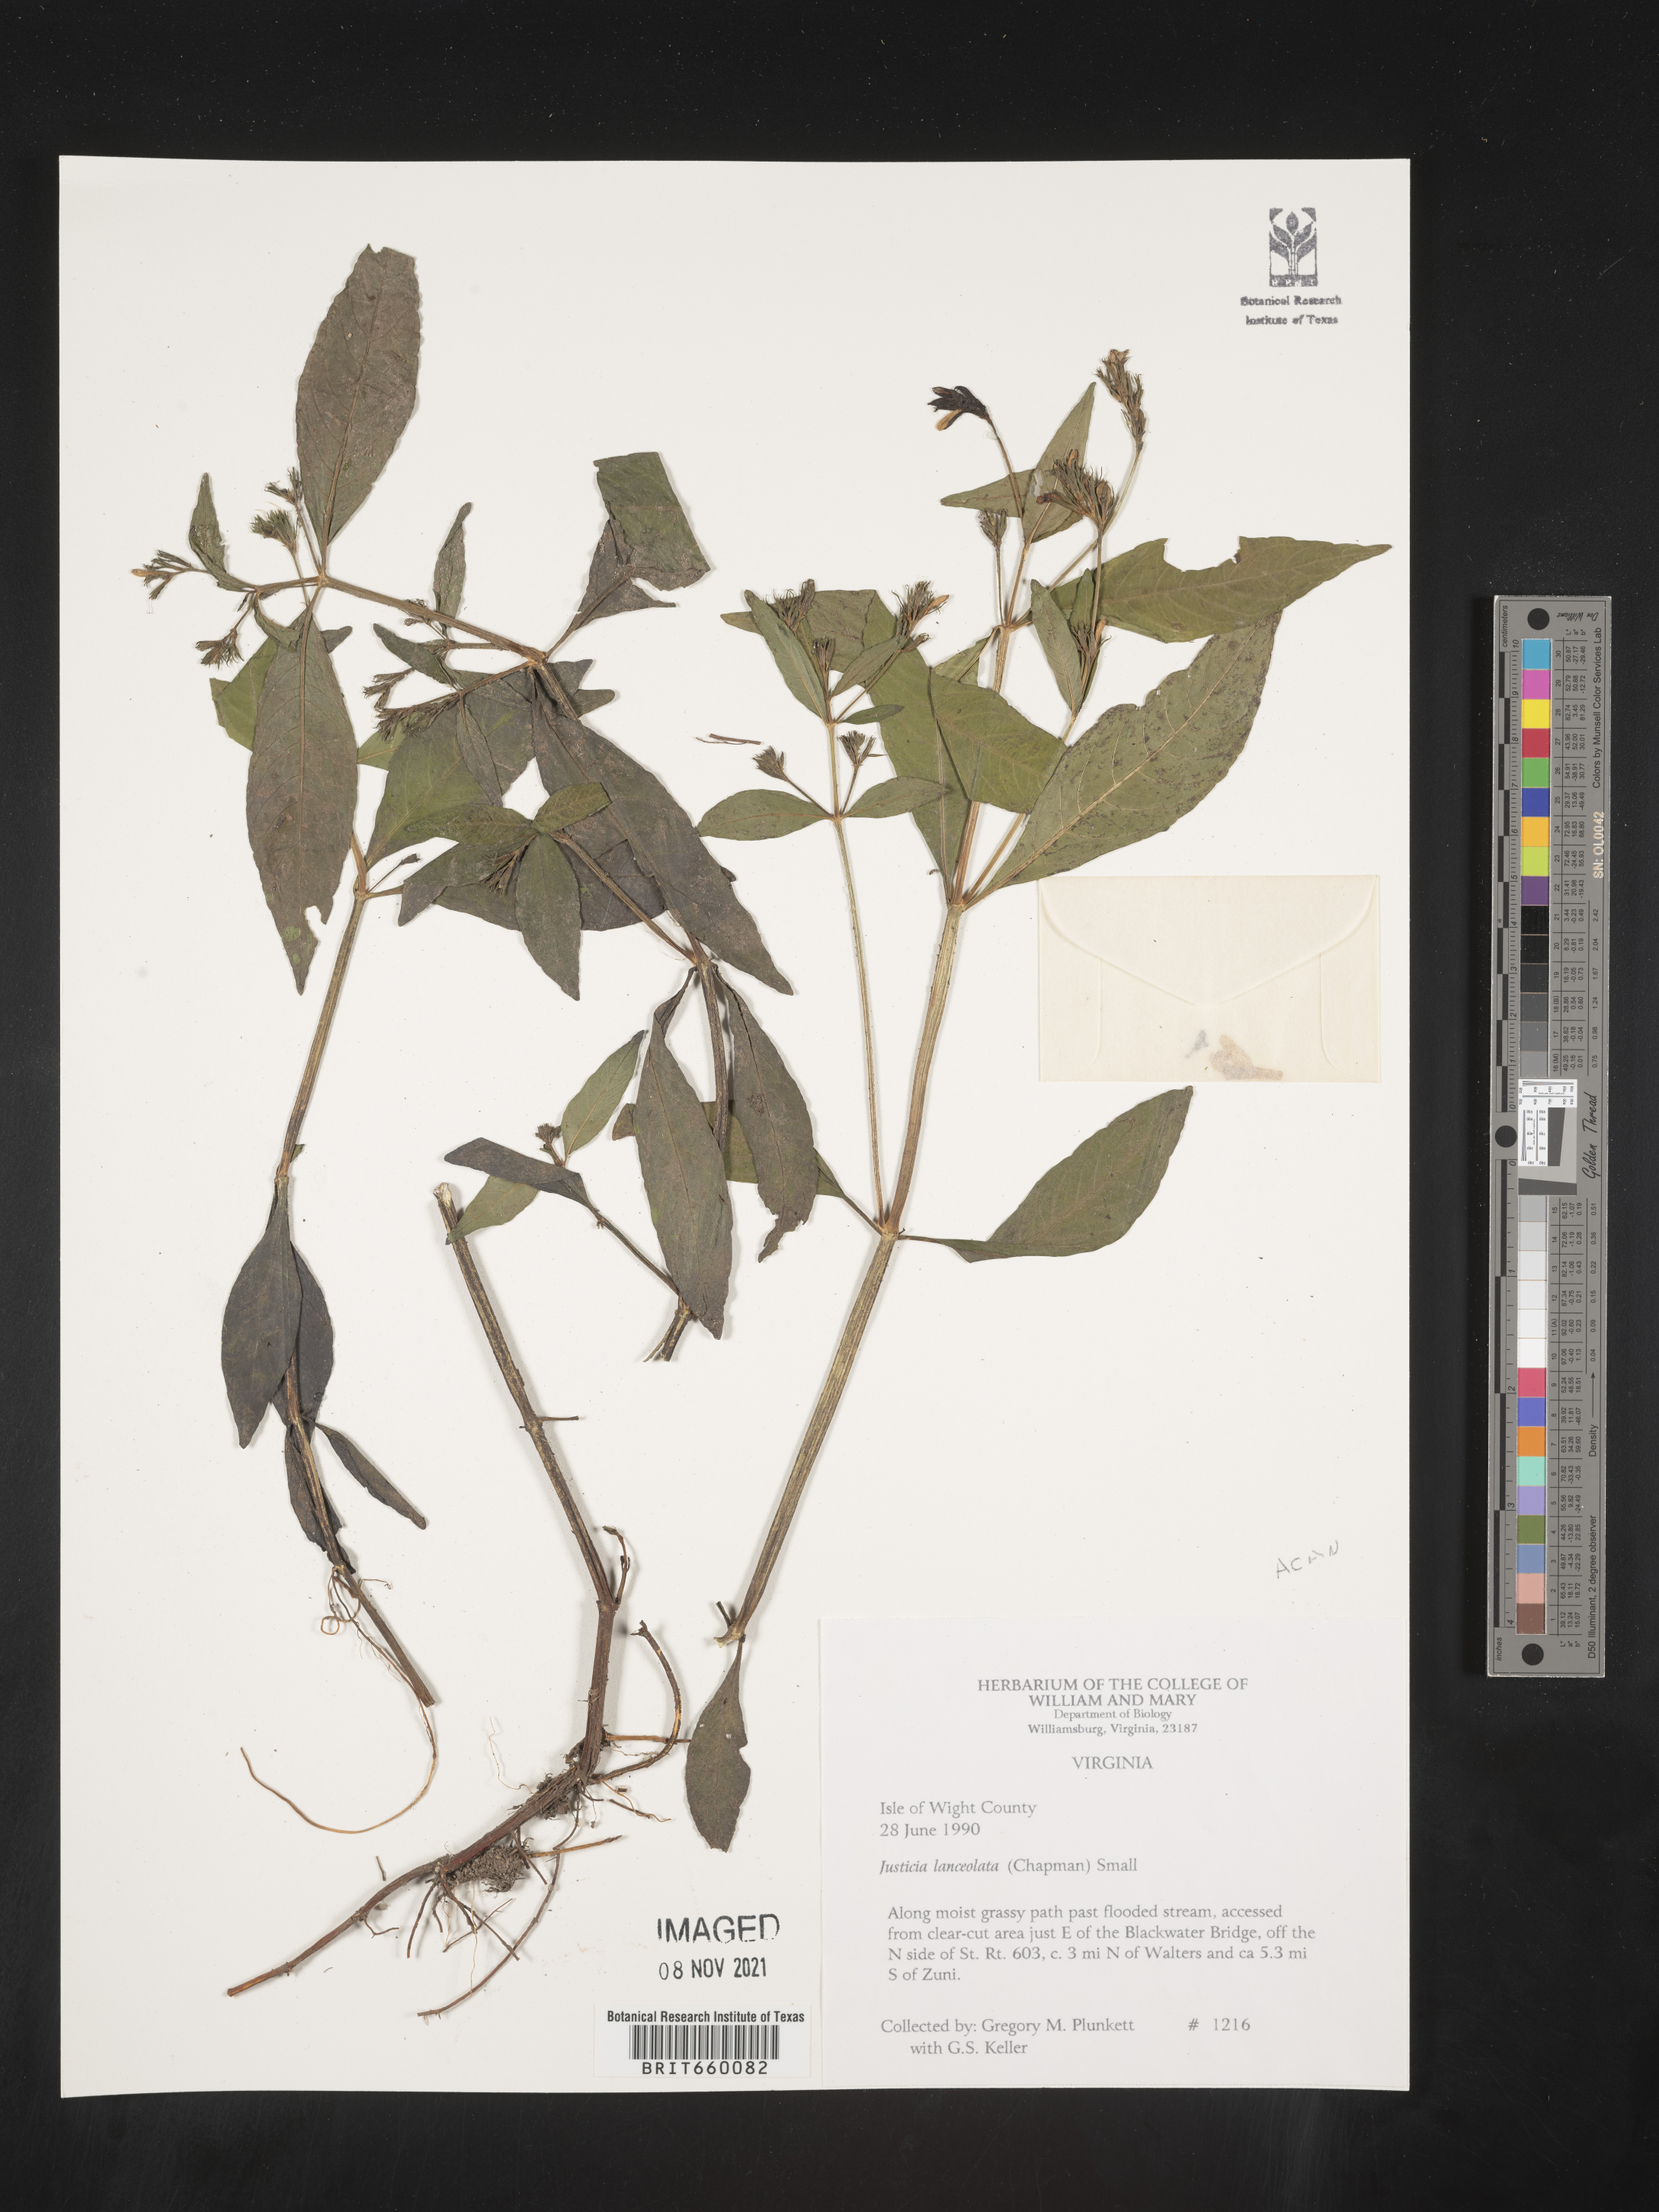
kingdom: Plantae
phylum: Tracheophyta
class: Magnoliopsida
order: Lamiales
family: Acanthaceae
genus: Justicia
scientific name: Justicia lanceolata
